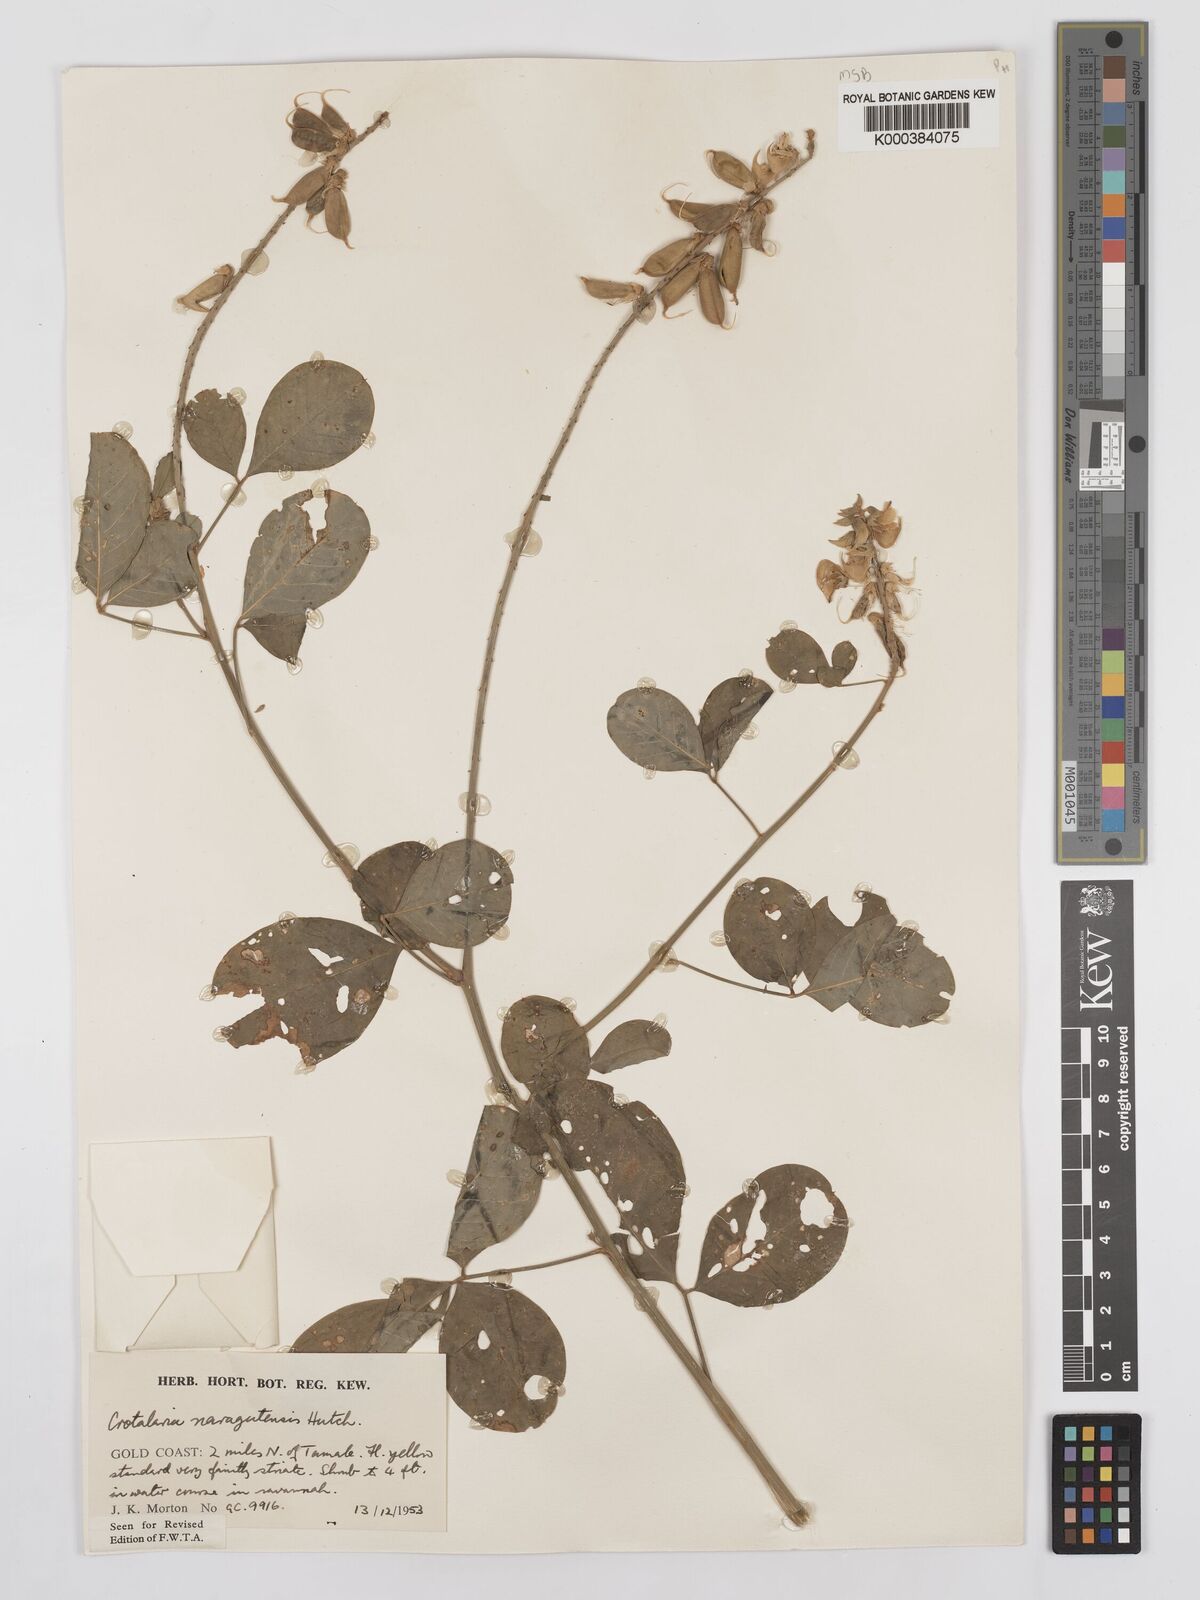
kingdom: Plantae
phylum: Tracheophyta
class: Magnoliopsida
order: Fabales
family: Fabaceae
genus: Crotalaria
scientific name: Crotalaria naragutensis
